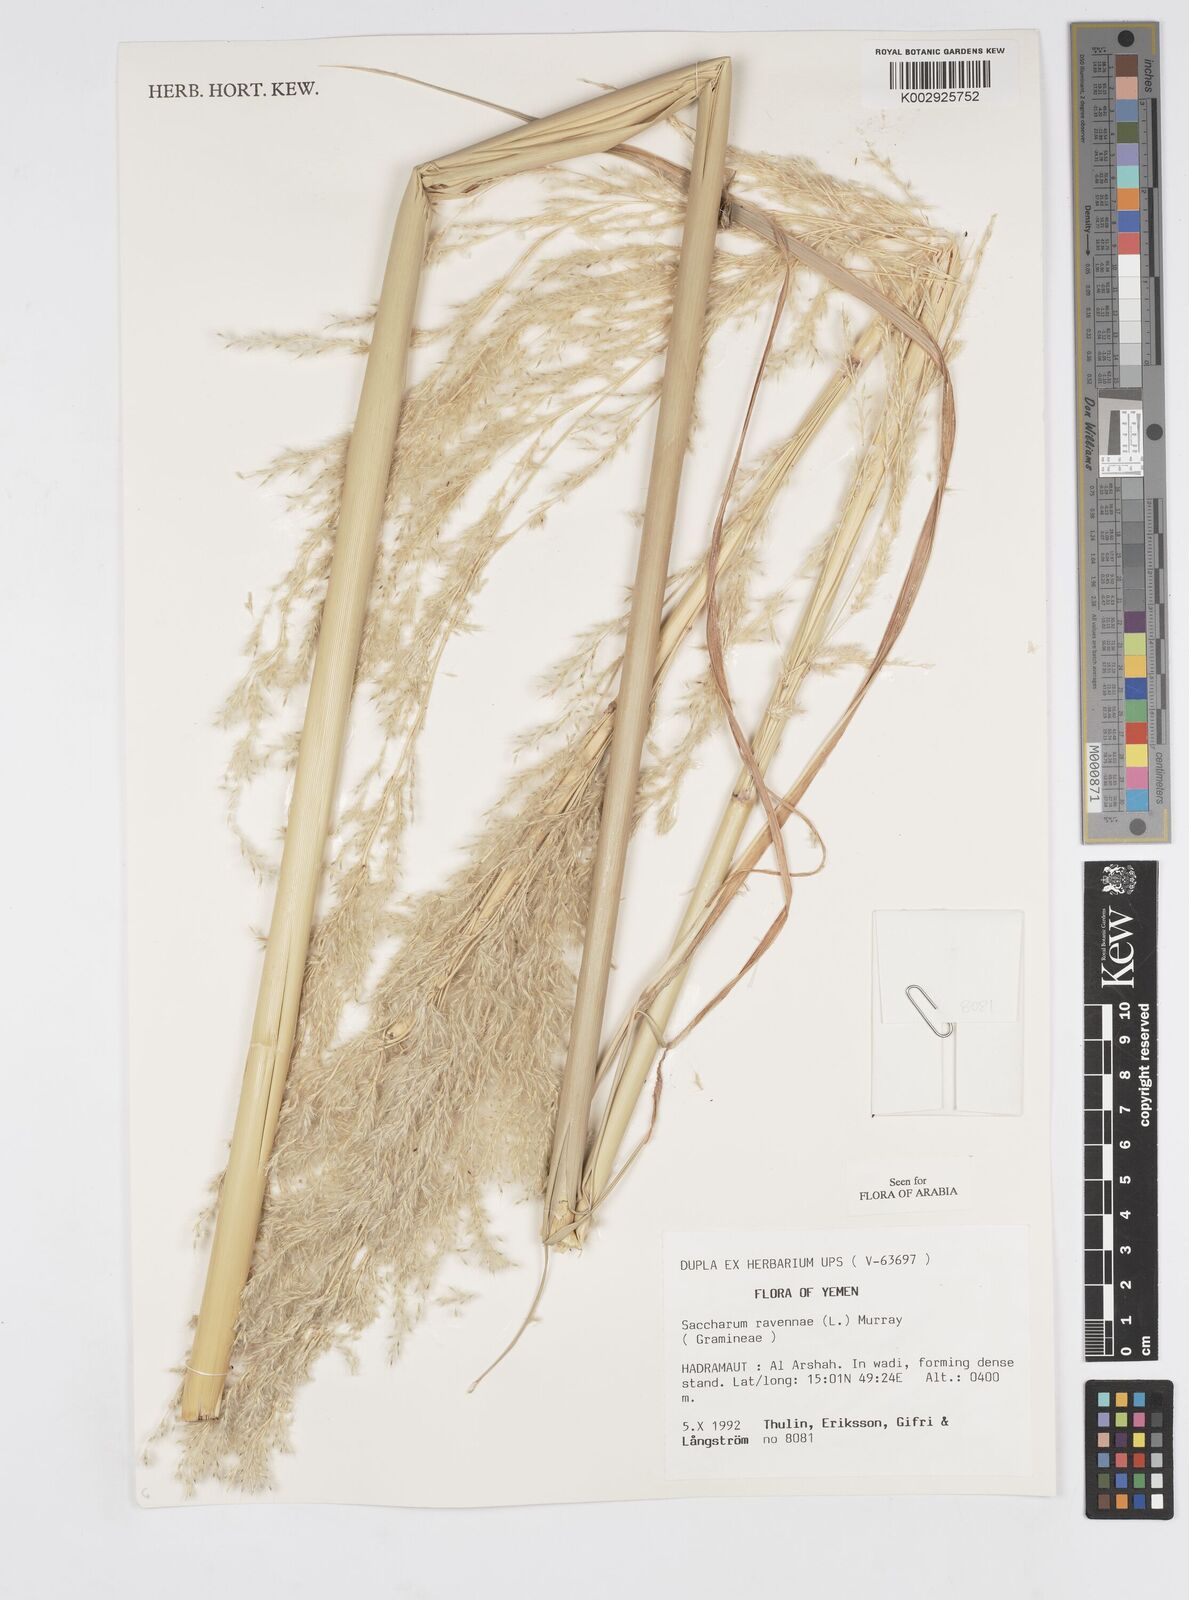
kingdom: Plantae
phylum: Tracheophyta
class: Liliopsida
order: Poales
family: Poaceae
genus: Tripidium
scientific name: Tripidium ravennae
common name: Ravenna grass
